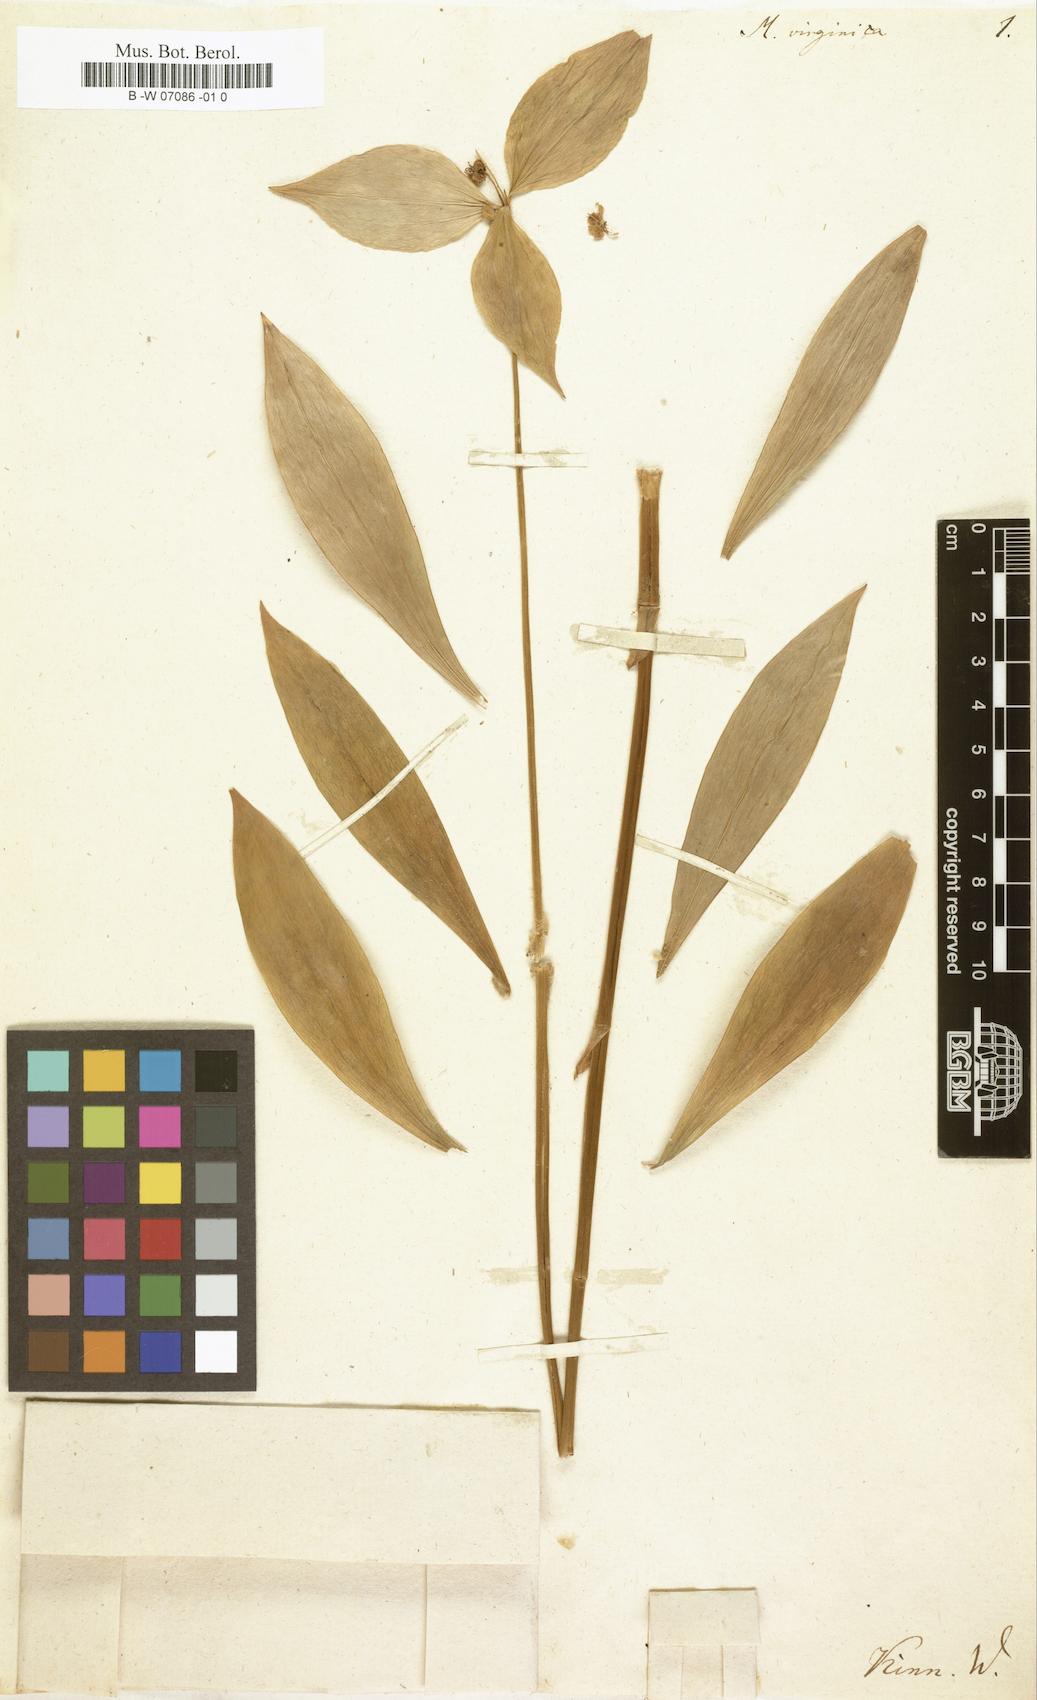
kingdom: Plantae
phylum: Tracheophyta
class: Liliopsida
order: Liliales
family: Liliaceae
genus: Medeola
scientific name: Medeola virginiana
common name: Indian cucumber-root
